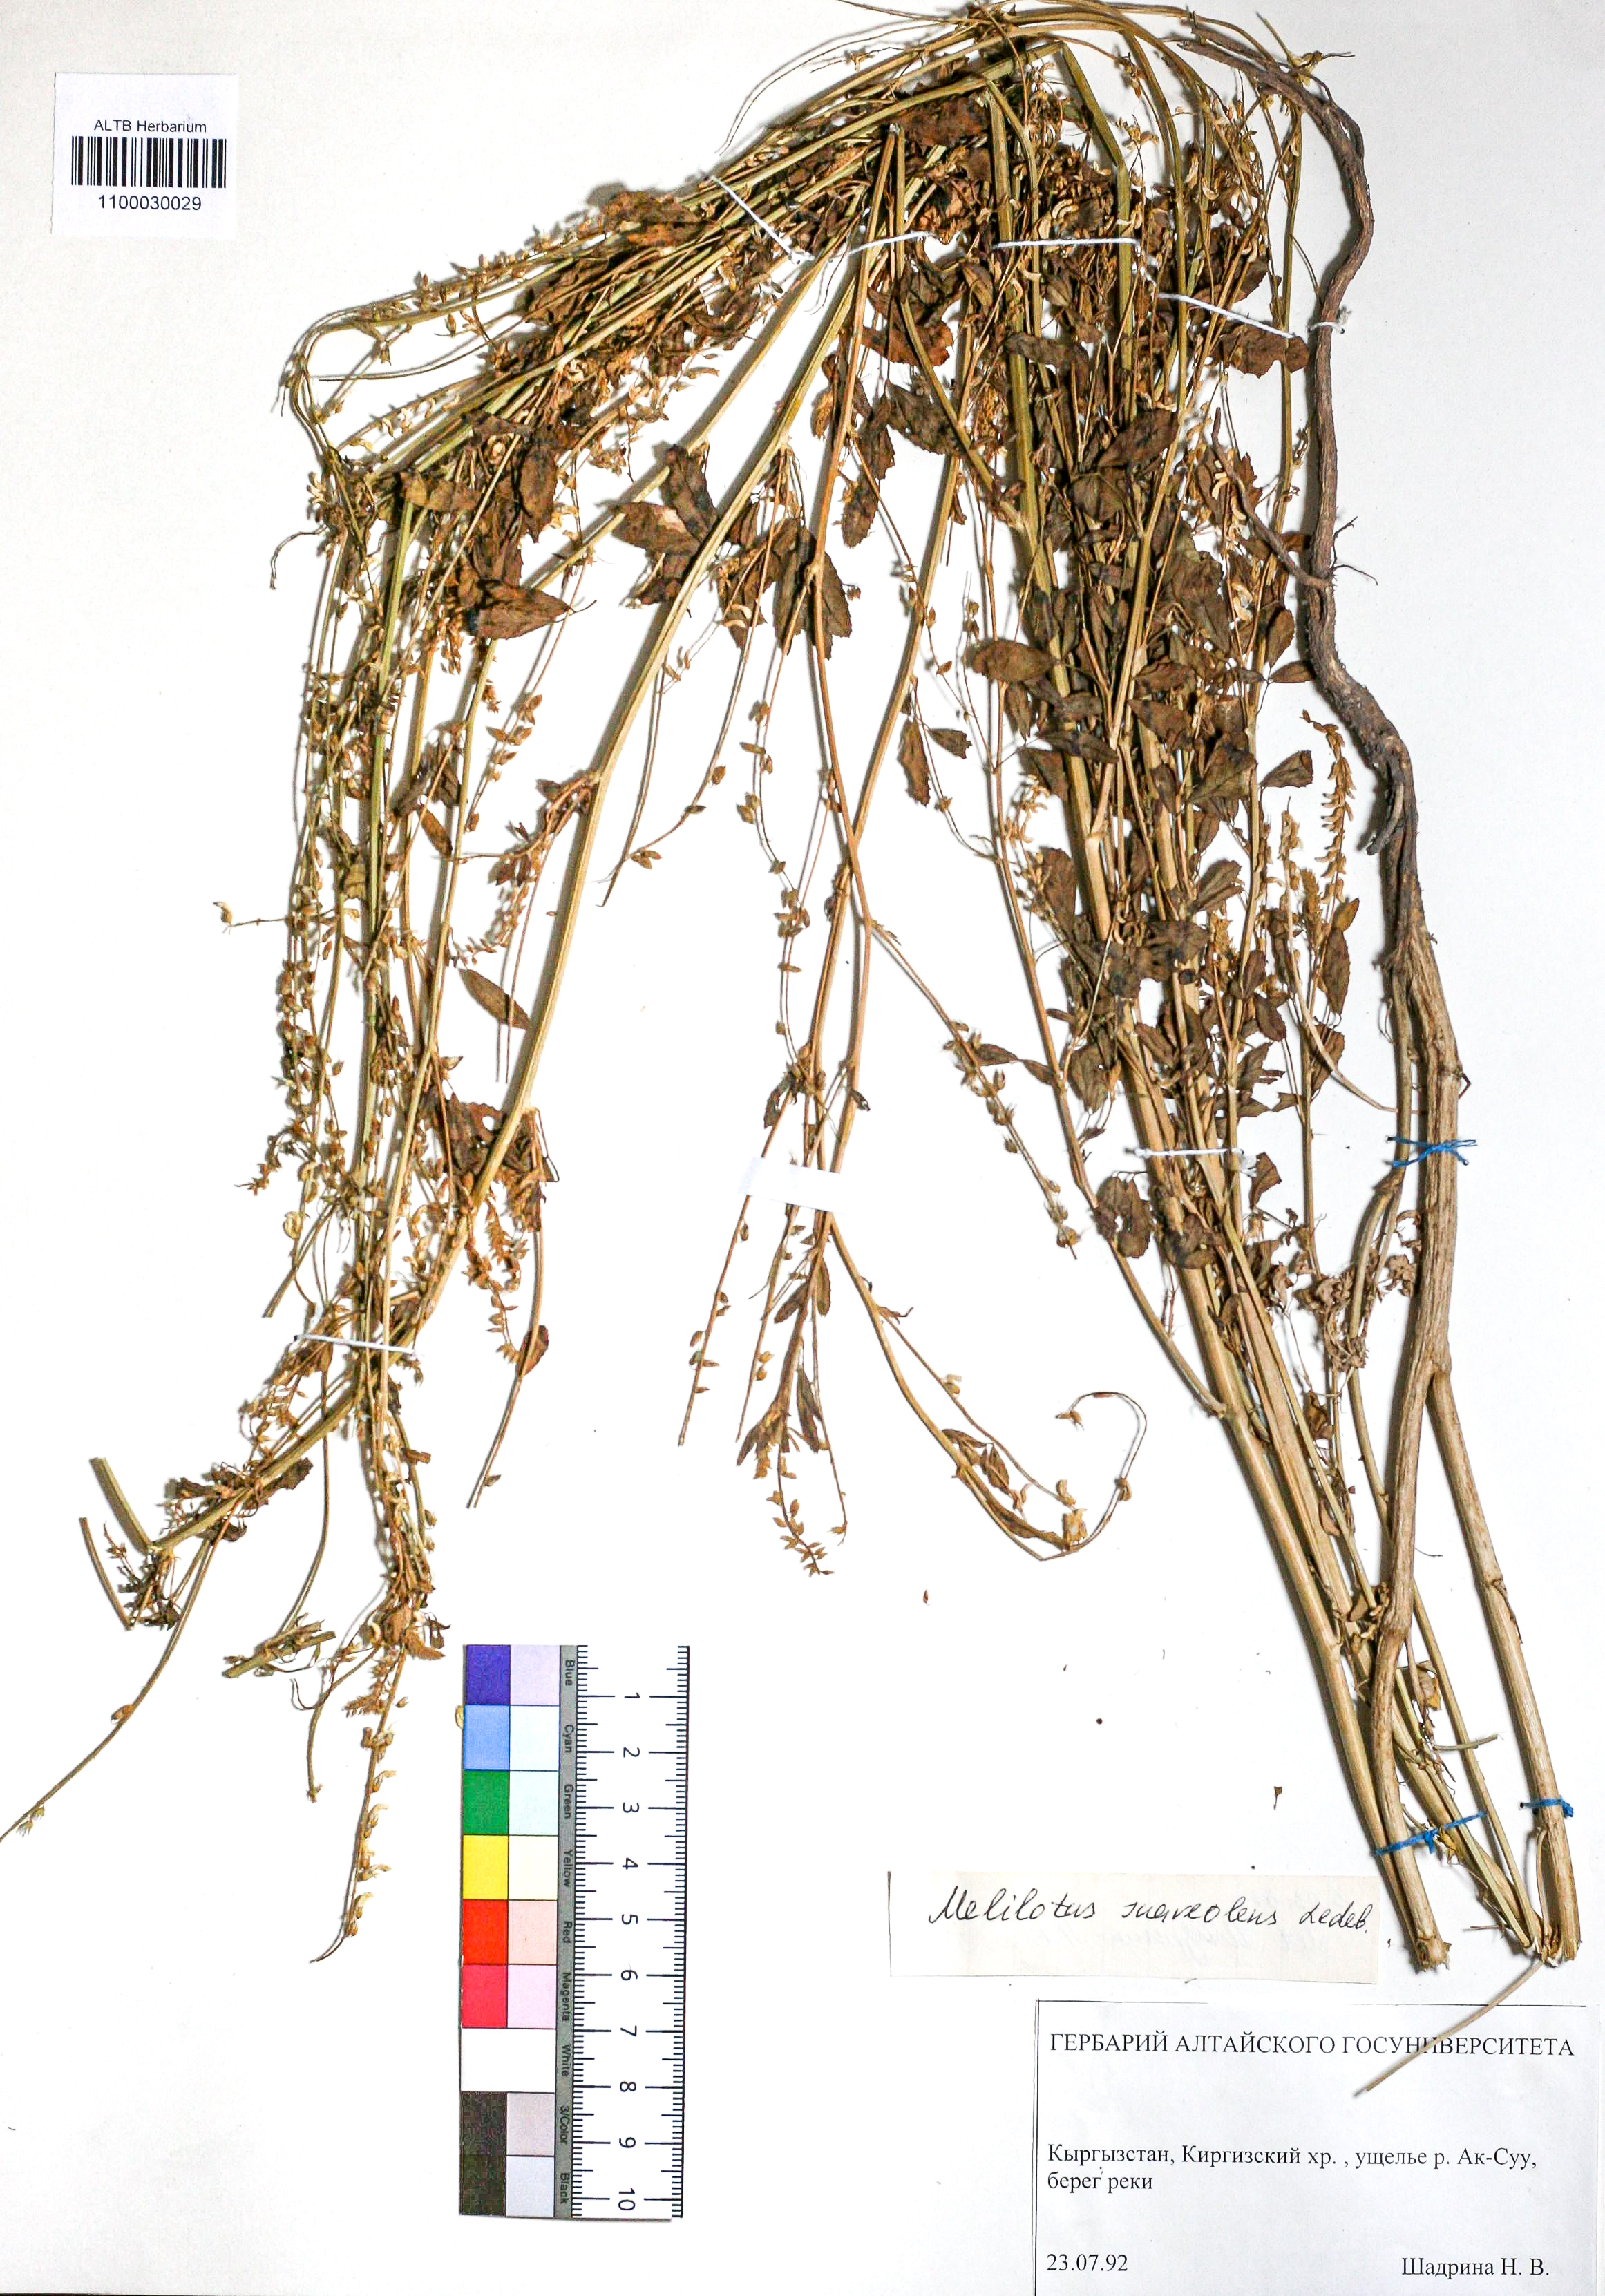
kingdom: Plantae
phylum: Tracheophyta
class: Magnoliopsida
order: Fabales
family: Fabaceae
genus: Melilotus
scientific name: Melilotus suaveolens
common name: Daghestan sweet-clover
